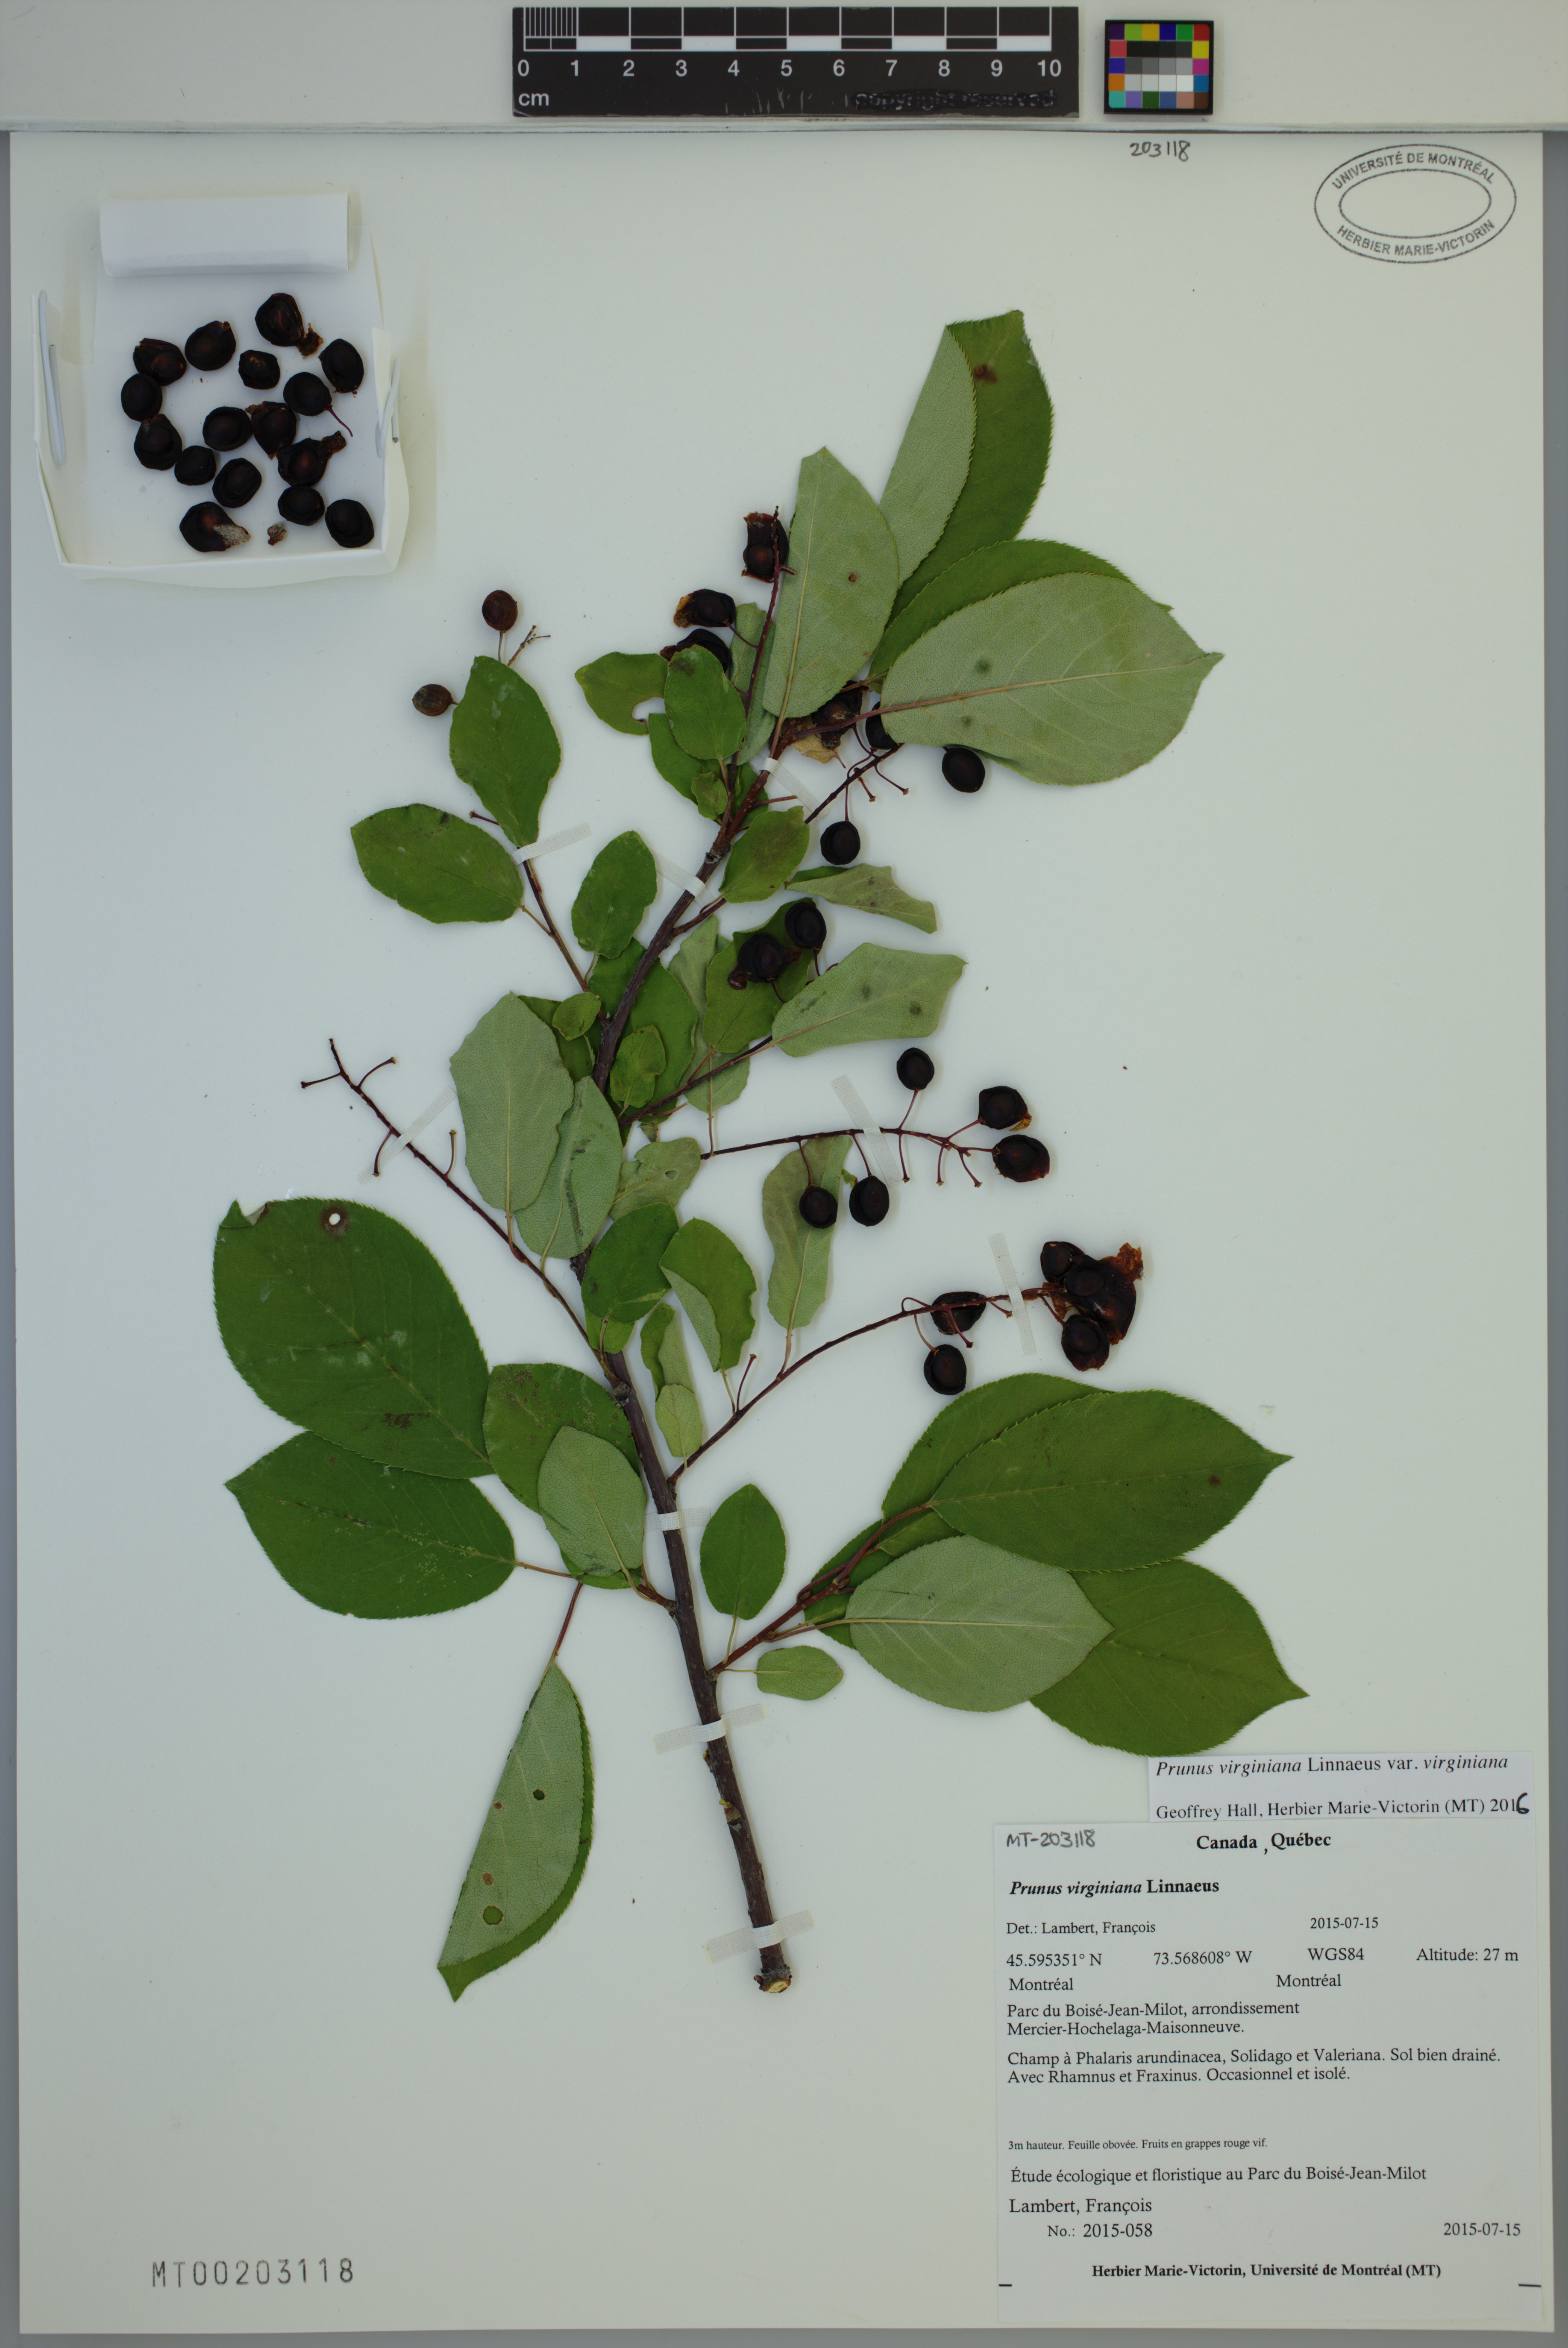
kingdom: Plantae
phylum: Tracheophyta
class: Magnoliopsida
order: Rosales
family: Rosaceae
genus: Prunus
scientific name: Prunus virginiana
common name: Chokecherry
